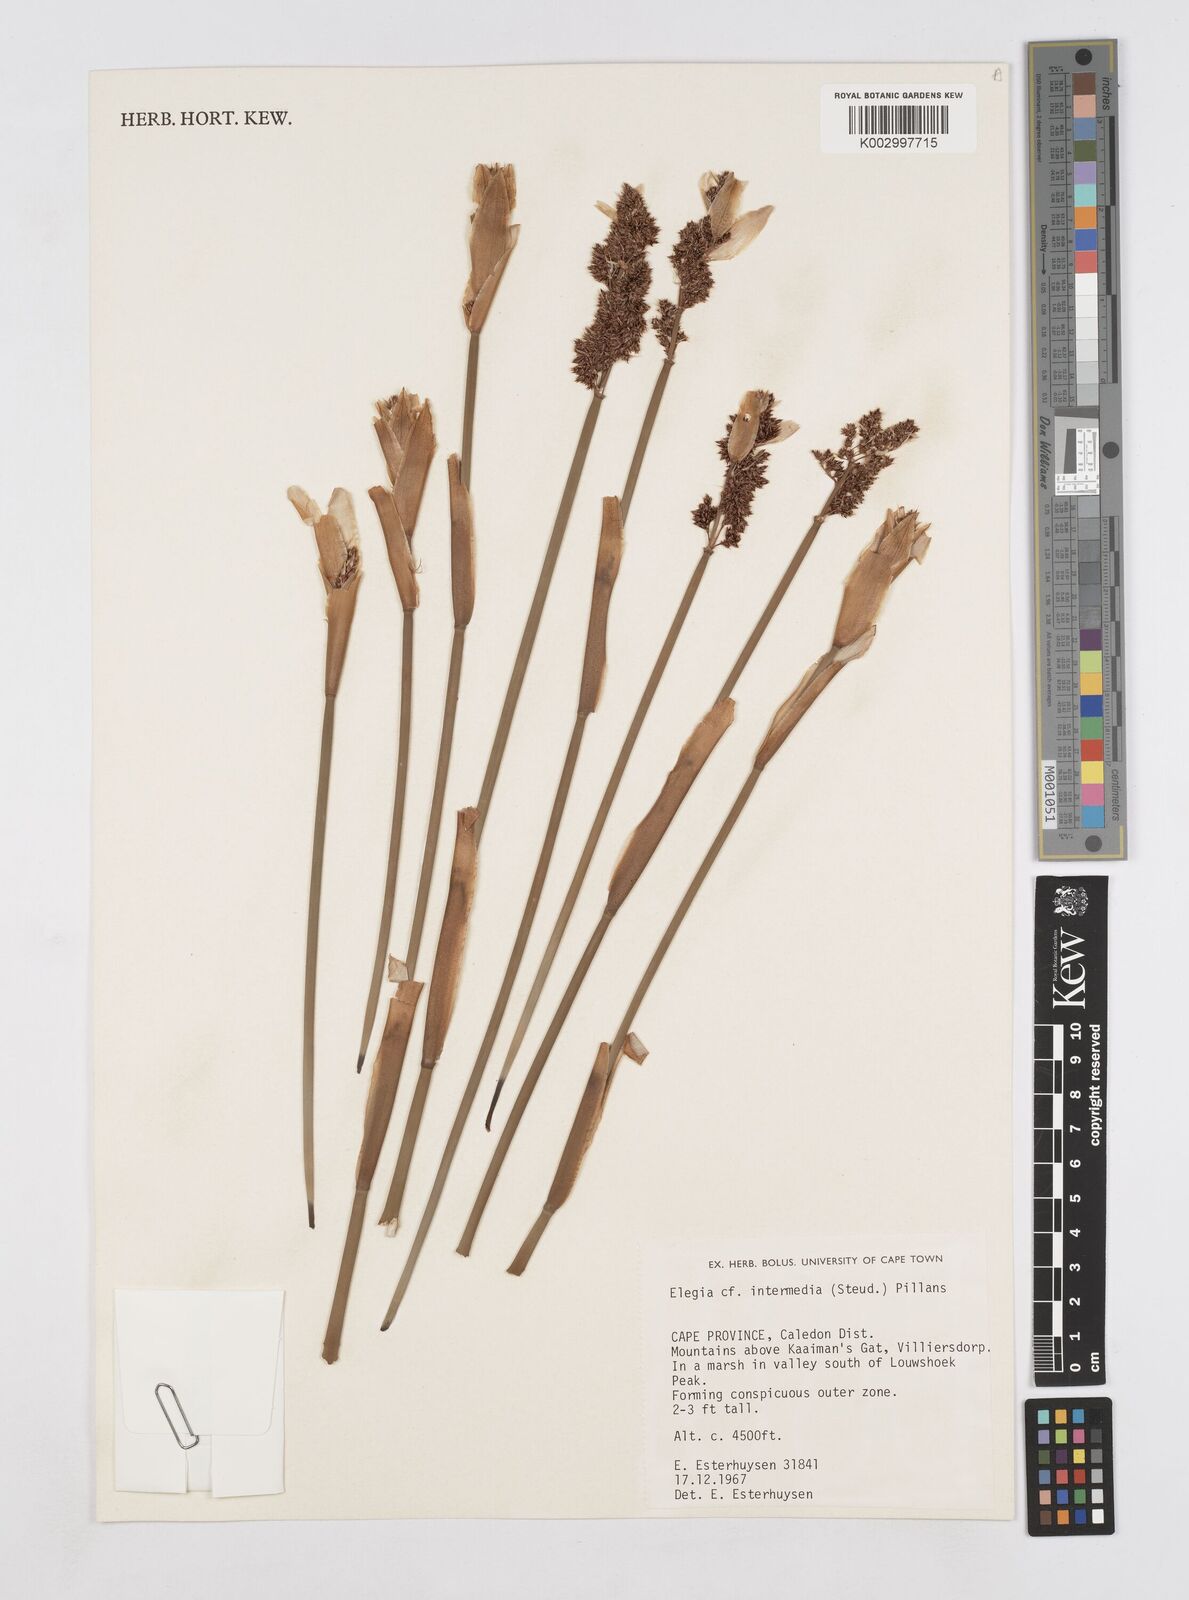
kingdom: Plantae
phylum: Tracheophyta
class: Liliopsida
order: Poales
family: Restionaceae
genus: Elegia
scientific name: Elegia intermedia
